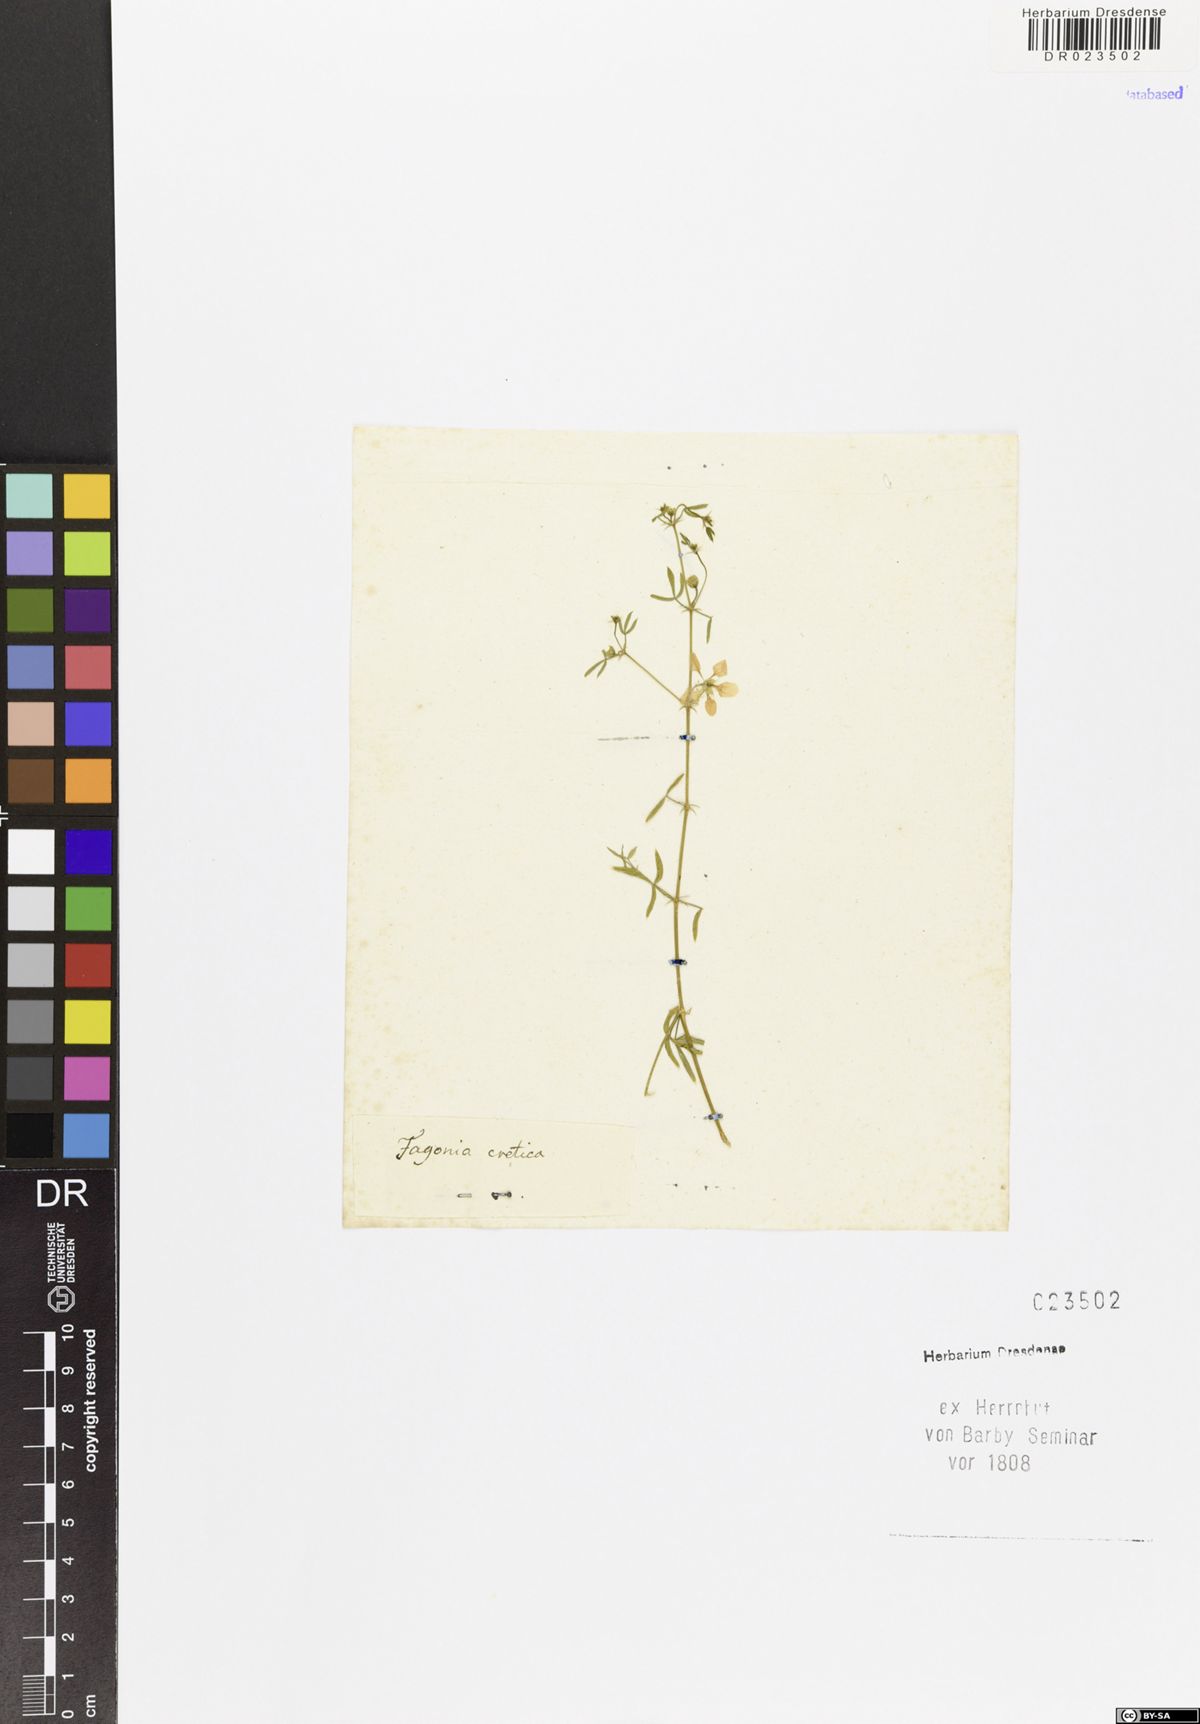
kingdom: Plantae
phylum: Tracheophyta
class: Magnoliopsida
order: Zygophyllales
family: Zygophyllaceae
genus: Fagonia
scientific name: Fagonia cretica
